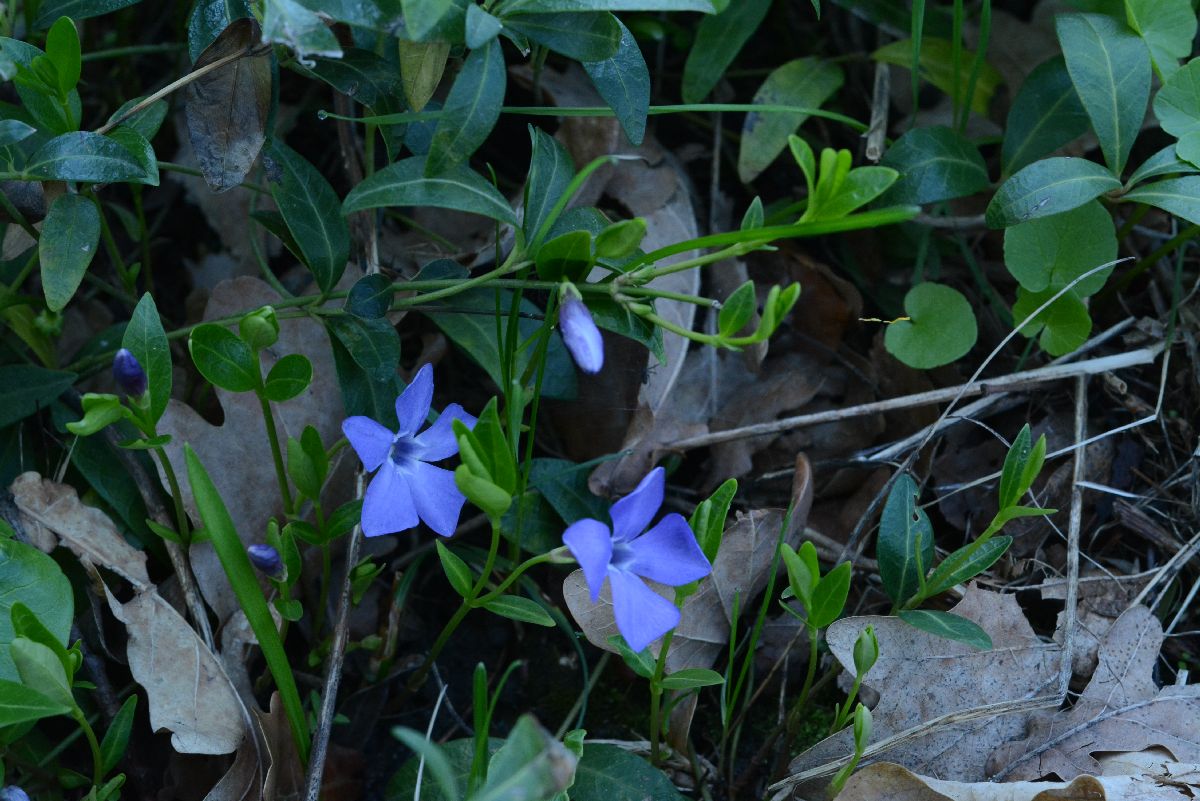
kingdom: Plantae
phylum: Tracheophyta
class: Magnoliopsida
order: Gentianales
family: Apocynaceae
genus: Vinca
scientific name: Vinca minor
